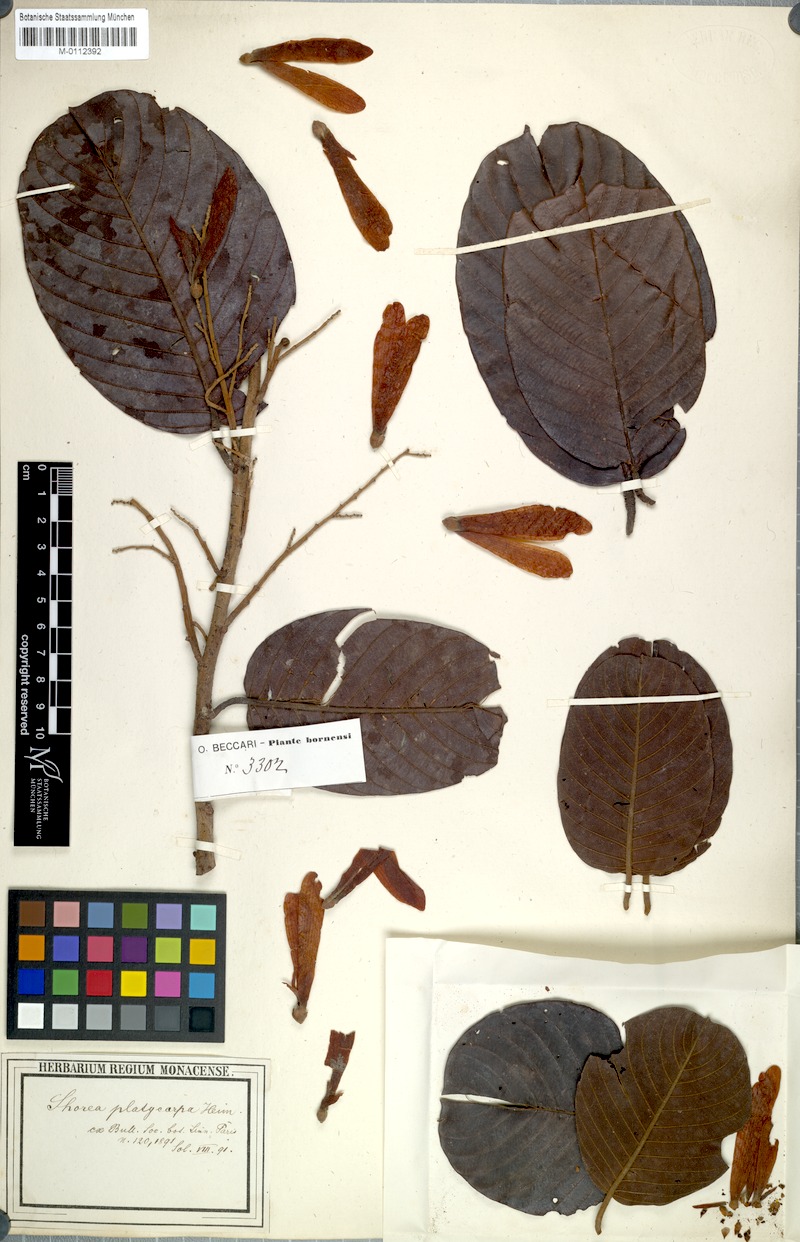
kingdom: Plantae
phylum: Tracheophyta
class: Magnoliopsida
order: Malvales
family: Dipterocarpaceae
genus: Shorea
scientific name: Shorea platycarpa
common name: Light red meranti
